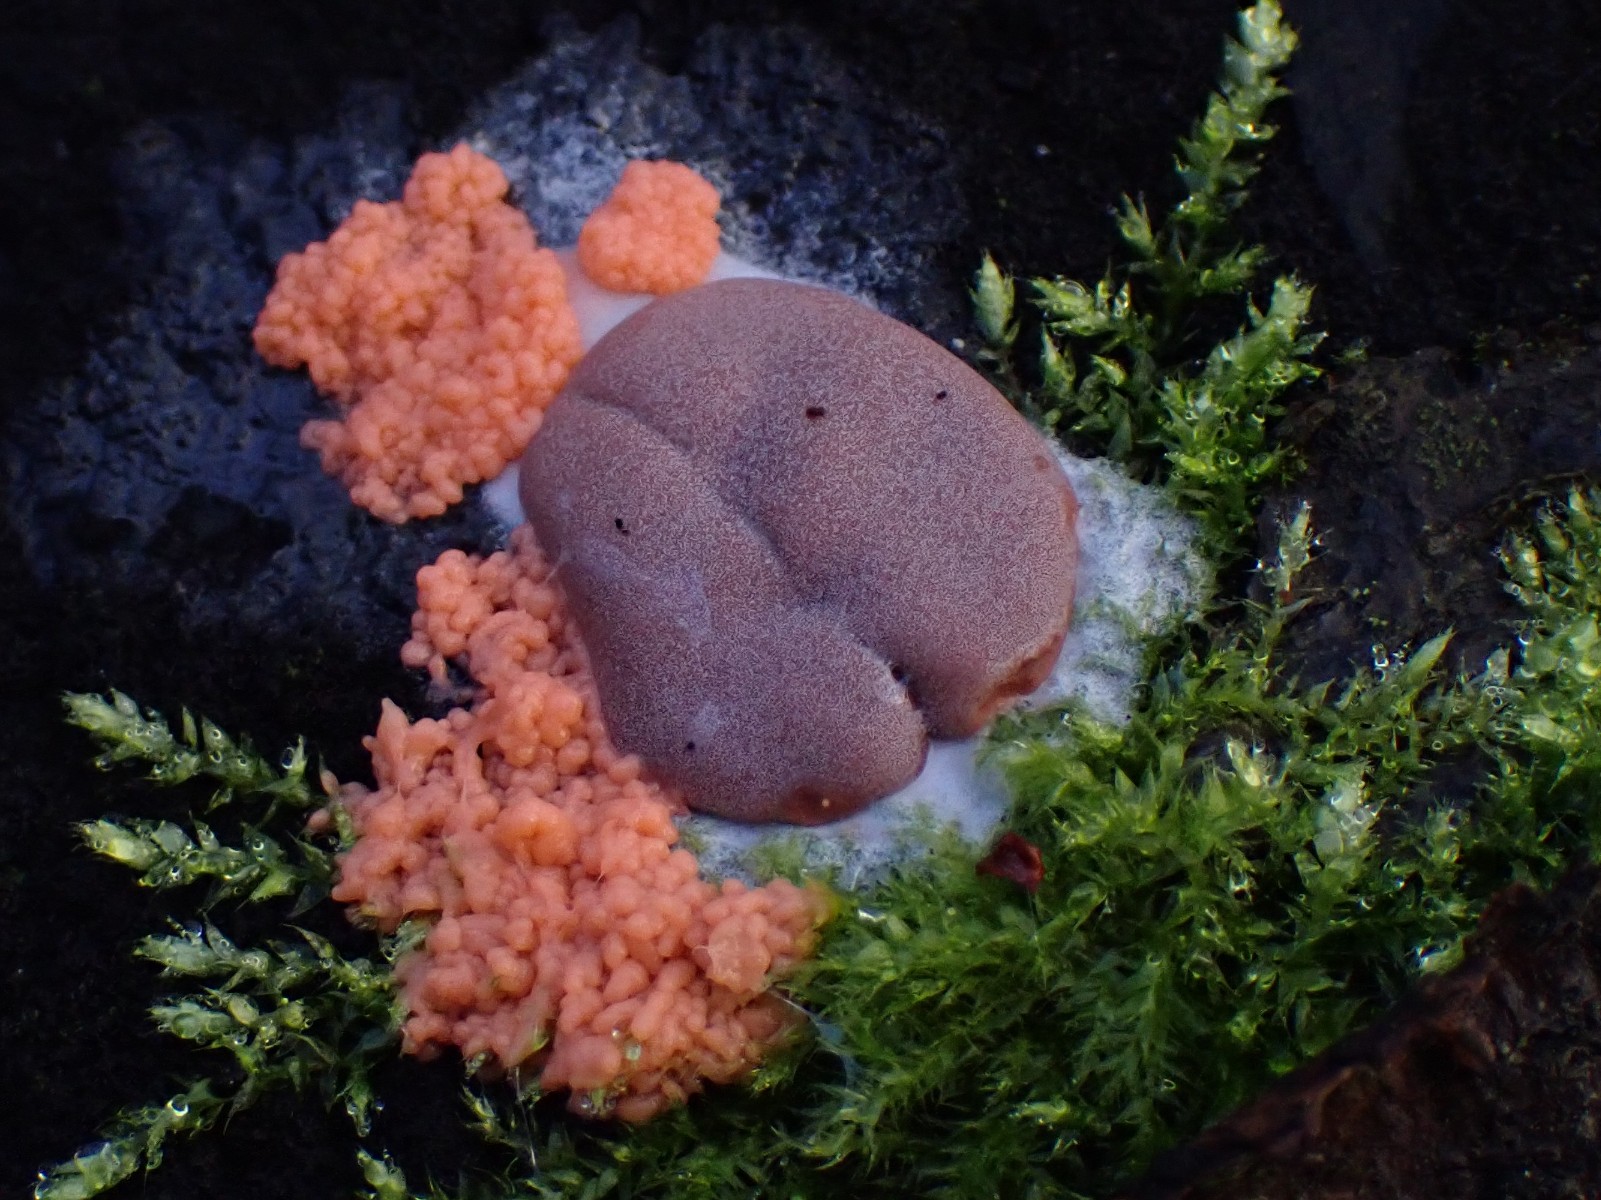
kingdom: Protozoa
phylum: Mycetozoa
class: Myxomycetes
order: Trichiales
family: Dictydiaethaliaceae
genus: Dictydiaethalium
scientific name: Dictydiaethalium plumbeum
